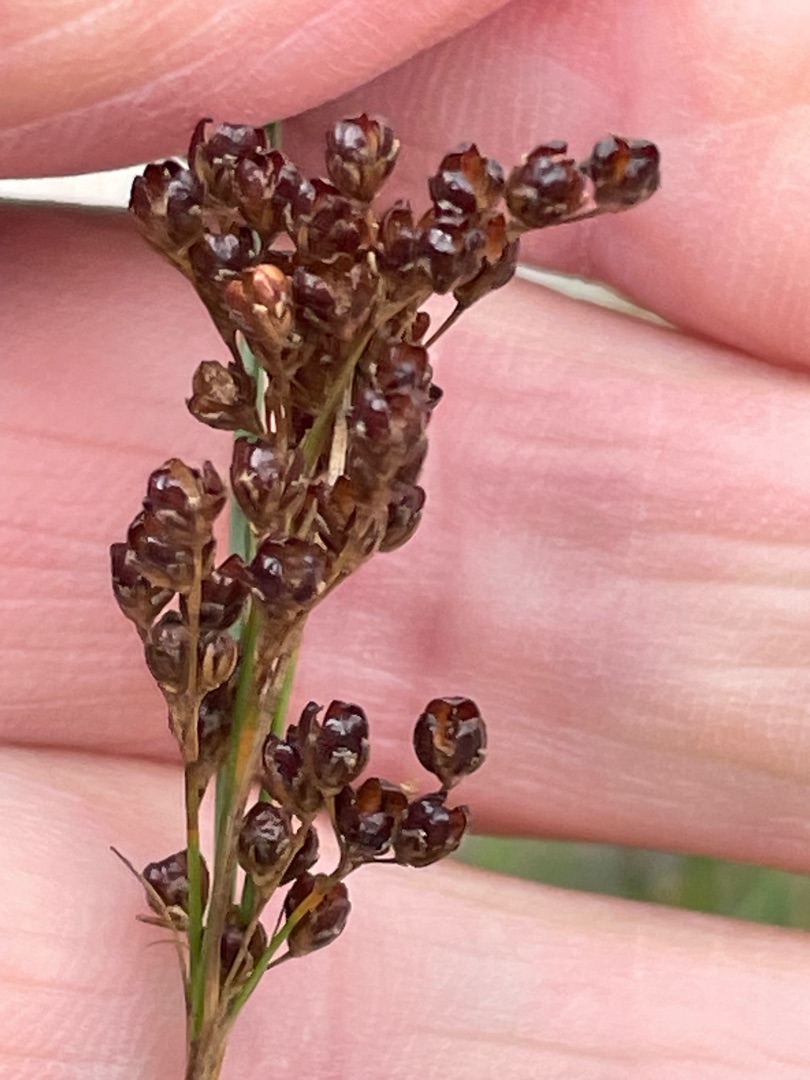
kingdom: Plantae
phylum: Tracheophyta
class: Liliopsida
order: Poales
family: Juncaceae
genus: Juncus
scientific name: Juncus compressus
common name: Fladstrået siv
